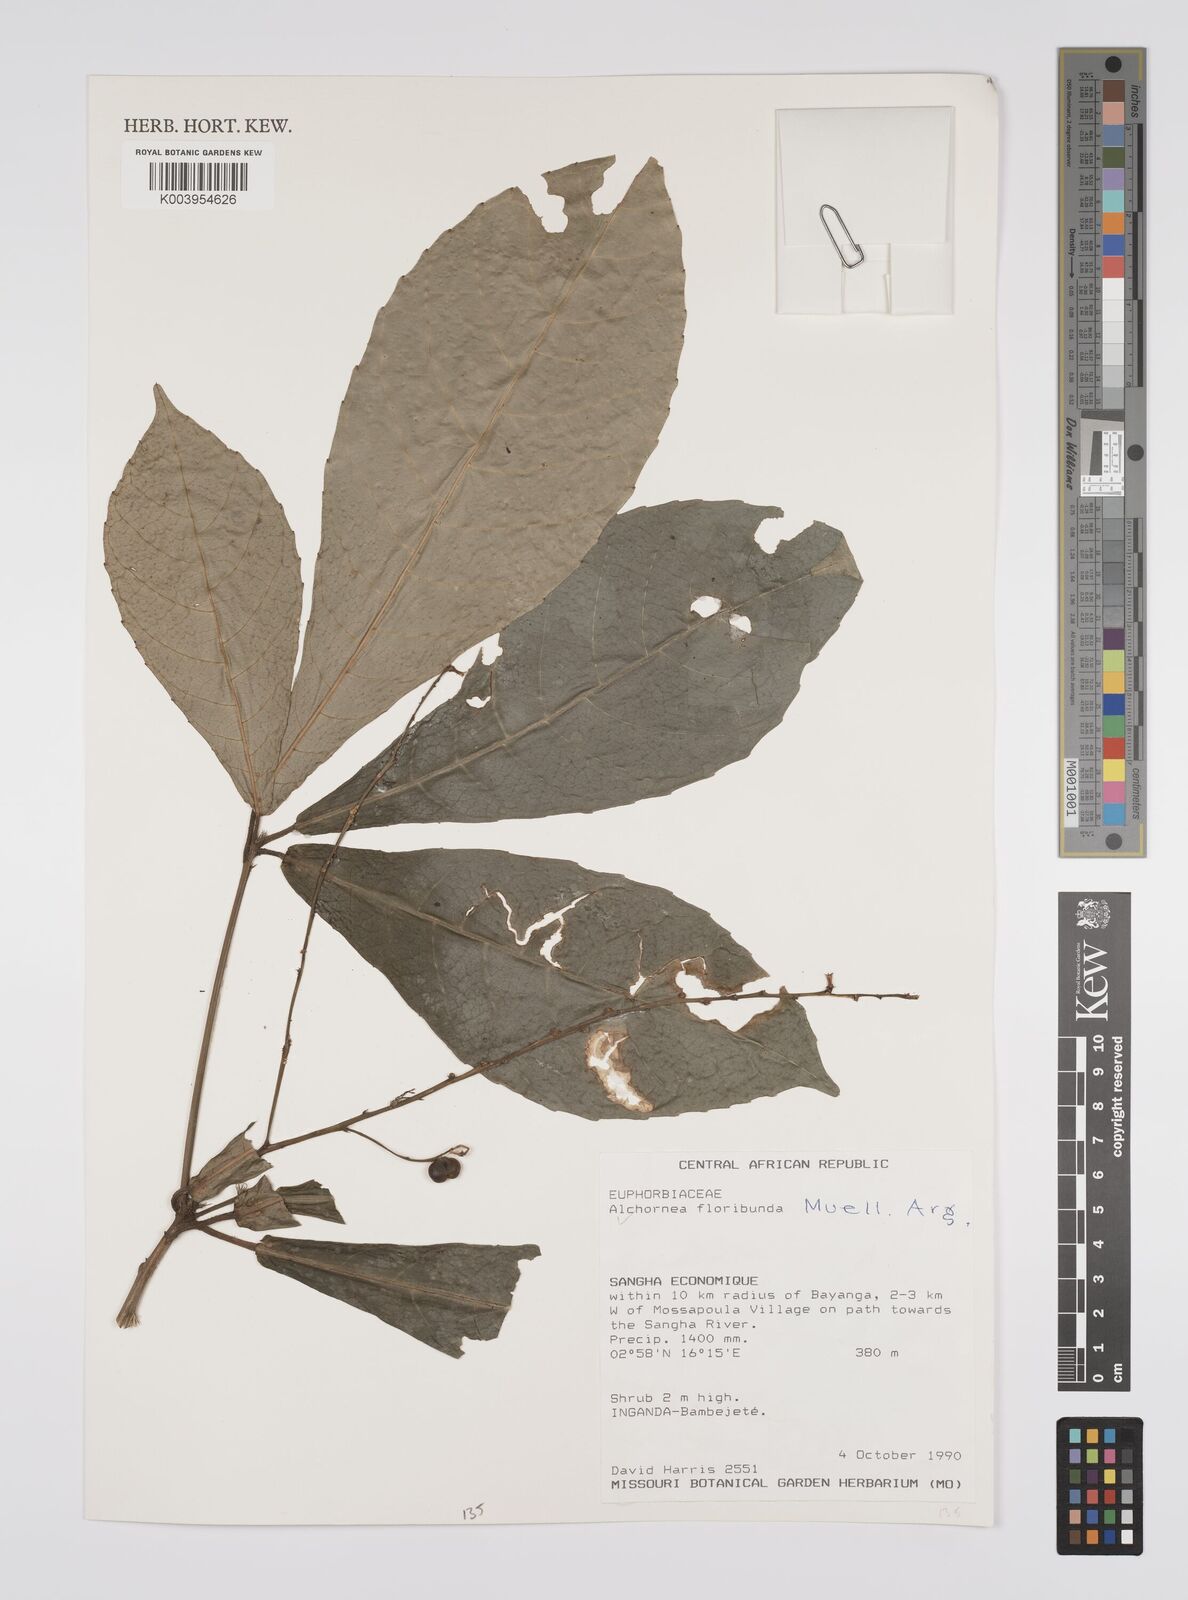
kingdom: Plantae
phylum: Tracheophyta
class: Magnoliopsida
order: Malpighiales
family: Euphorbiaceae
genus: Alchornea
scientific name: Alchornea floribunda
